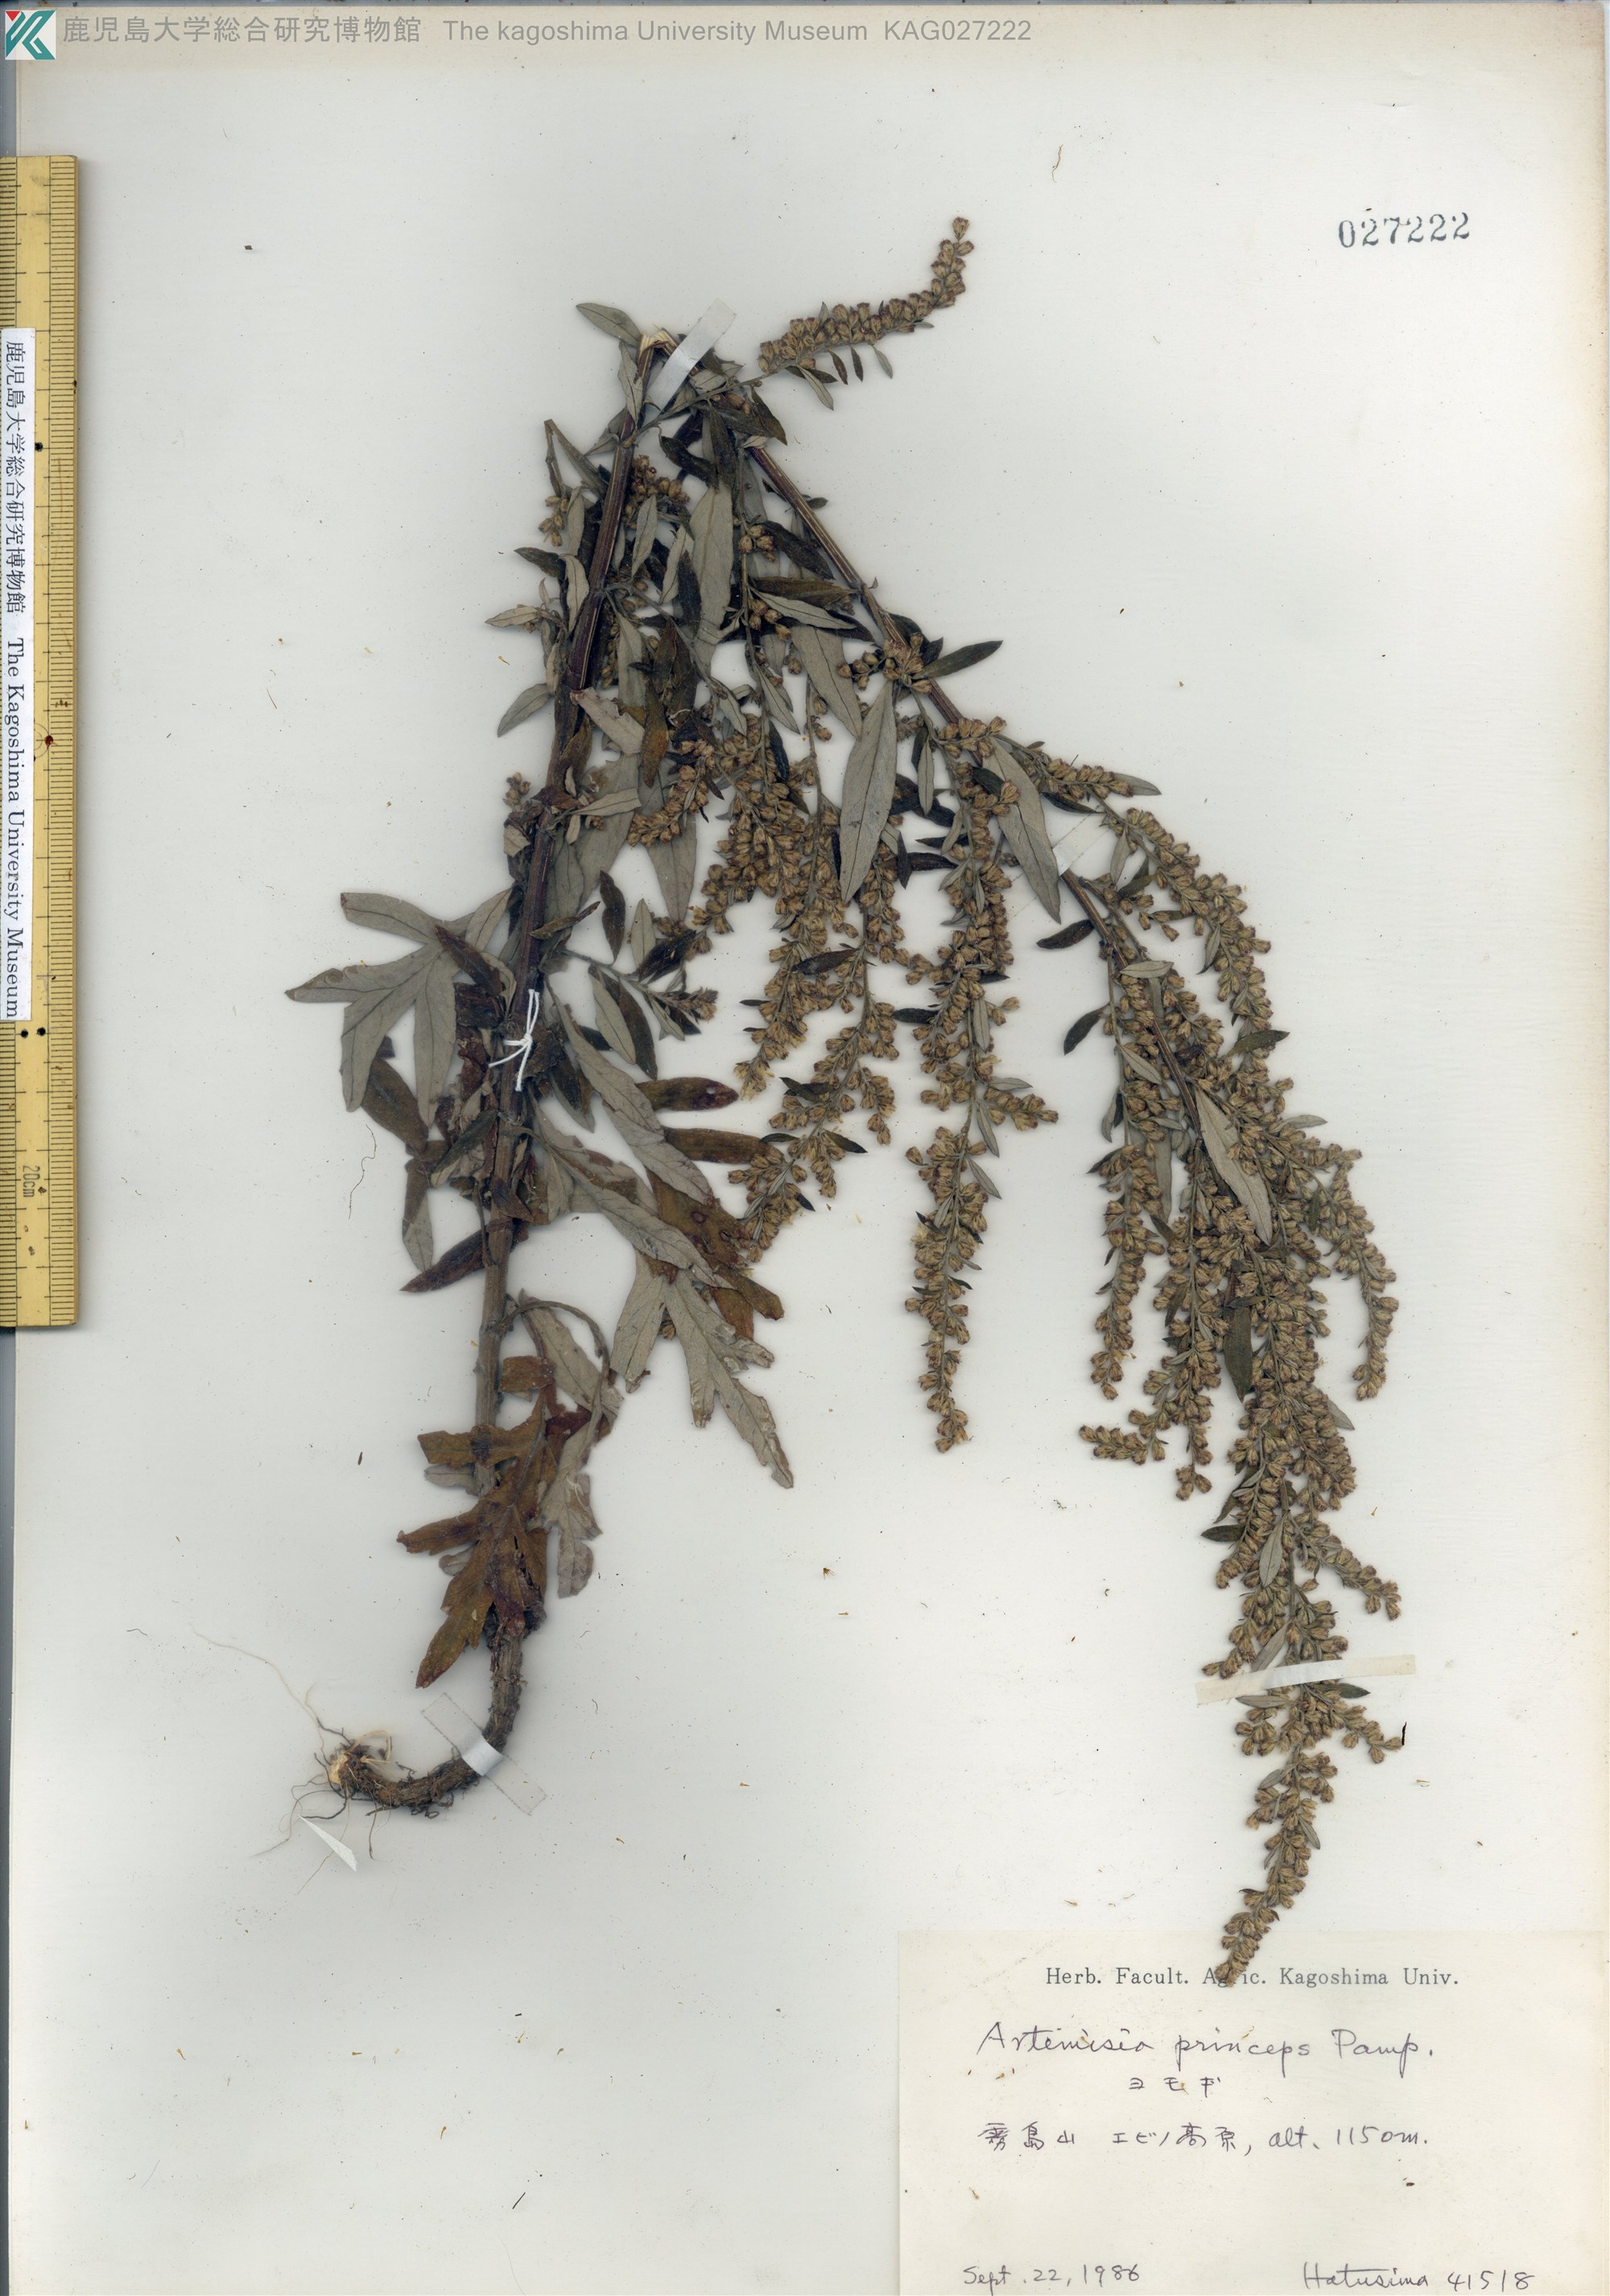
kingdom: Plantae
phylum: Tracheophyta
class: Magnoliopsida
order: Asterales
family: Asteraceae
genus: Artemisia
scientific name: Artemisia princeps
